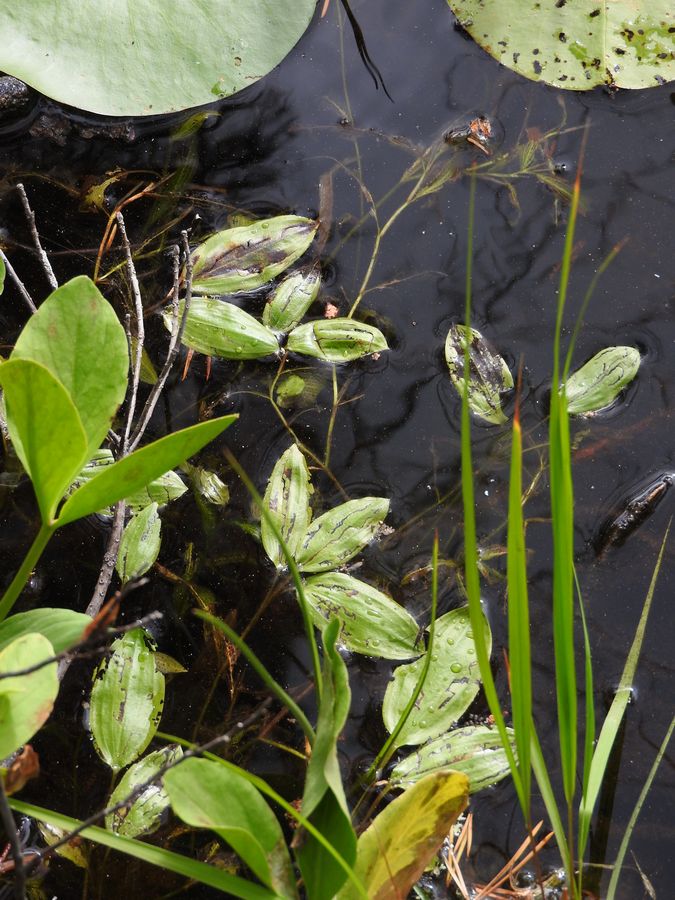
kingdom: Plantae
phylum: Tracheophyta
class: Liliopsida
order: Alismatales
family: Potamogetonaceae
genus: Potamogeton
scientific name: Potamogeton gramineus
